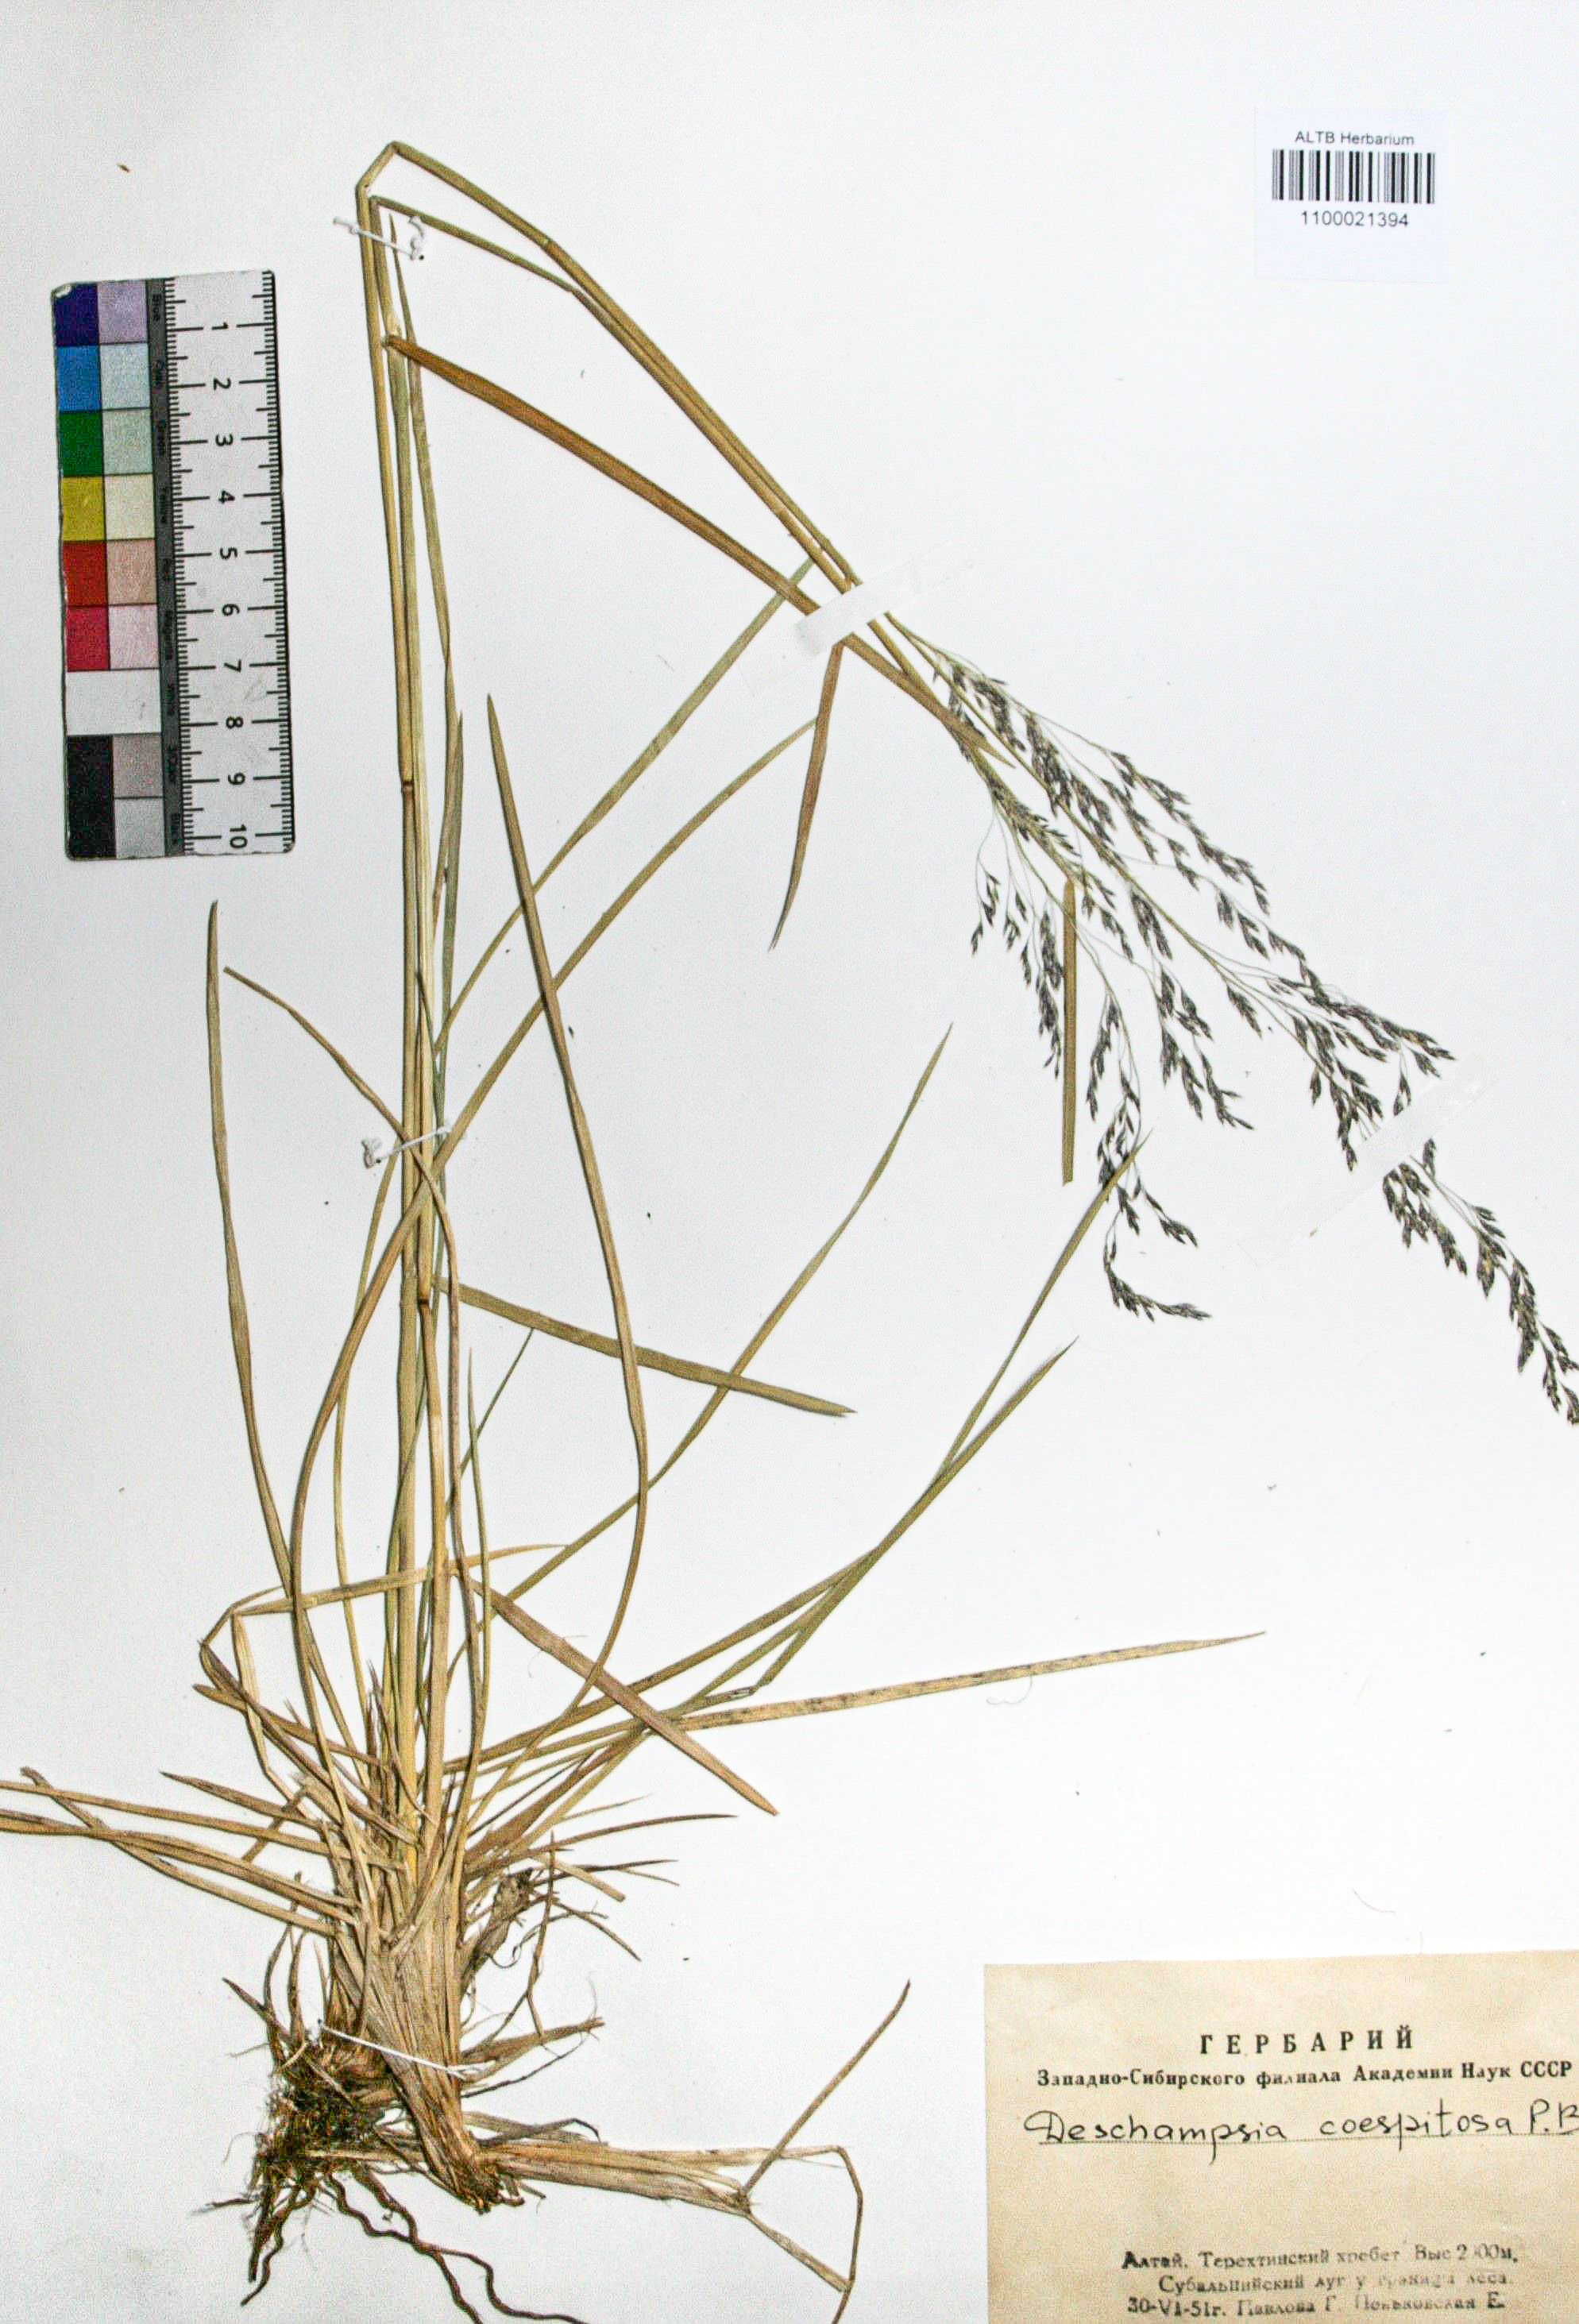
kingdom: Plantae
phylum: Tracheophyta
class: Liliopsida
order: Poales
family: Poaceae
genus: Deschampsia
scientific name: Deschampsia cespitosa
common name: Tufted hair-grass
